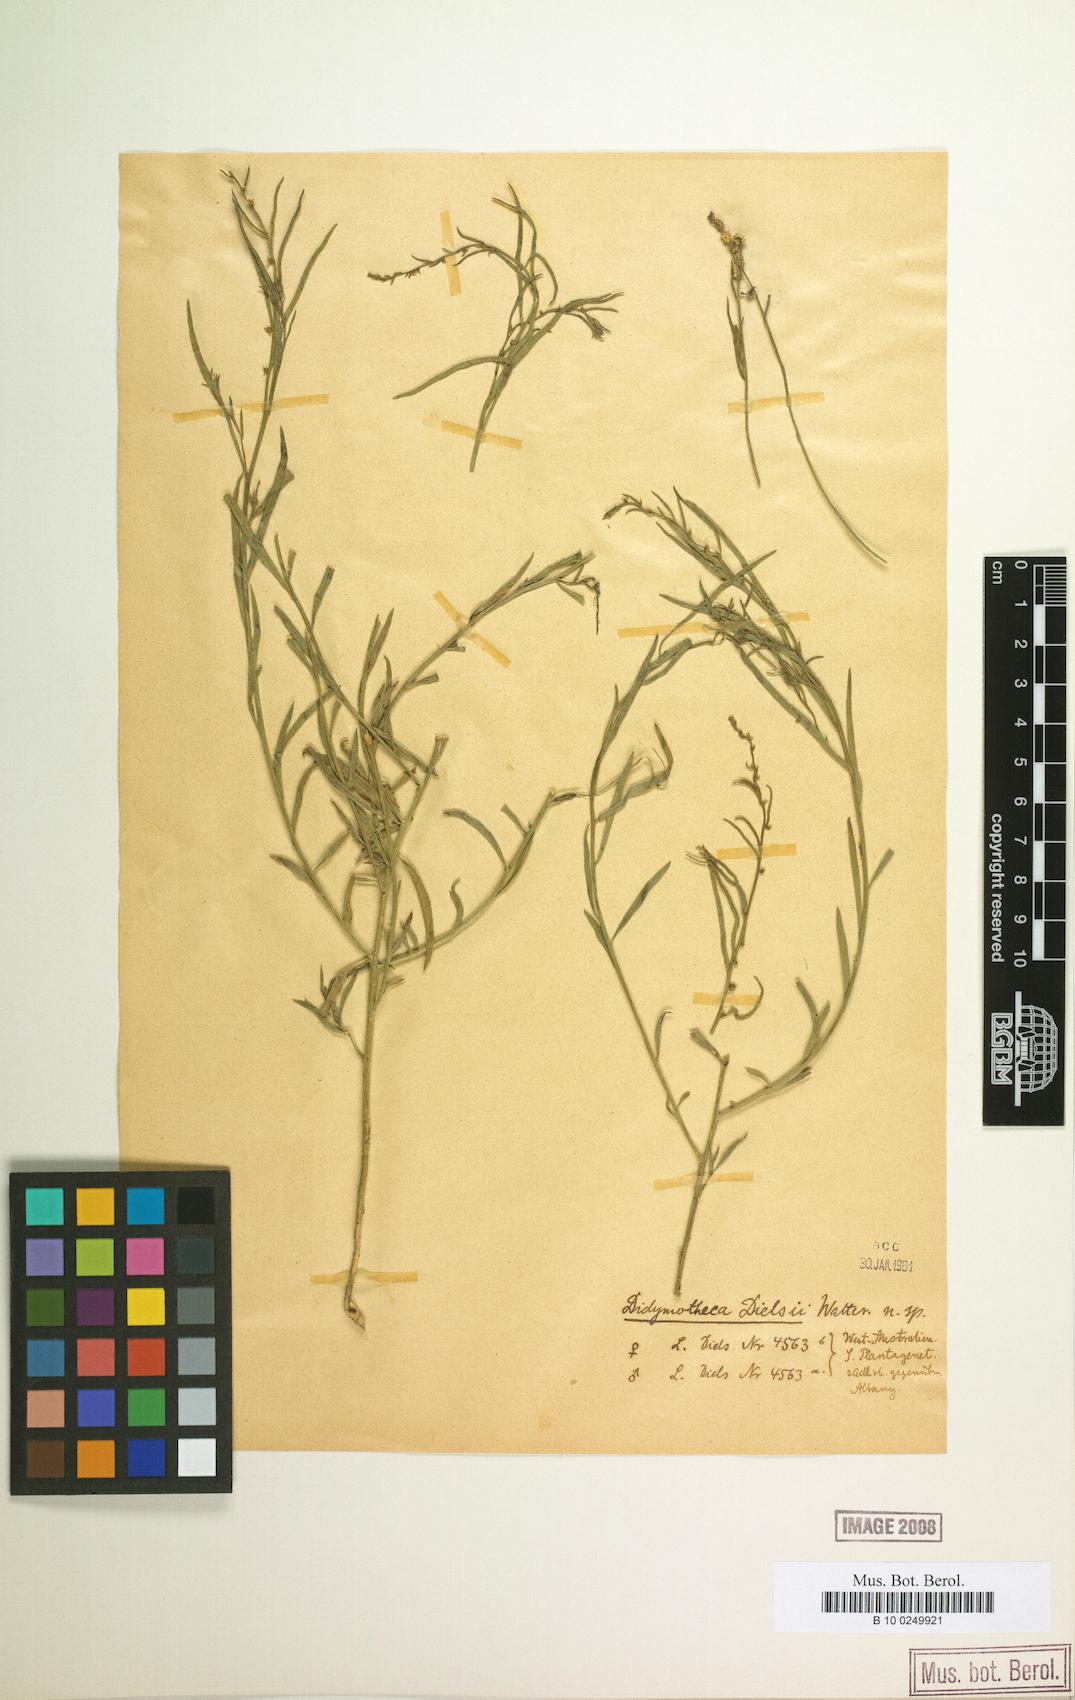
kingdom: Plantae
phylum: Tracheophyta
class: Magnoliopsida
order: Brassicales
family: Gyrostemonaceae
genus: Gyrostemon
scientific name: Gyrostemon thesioides
